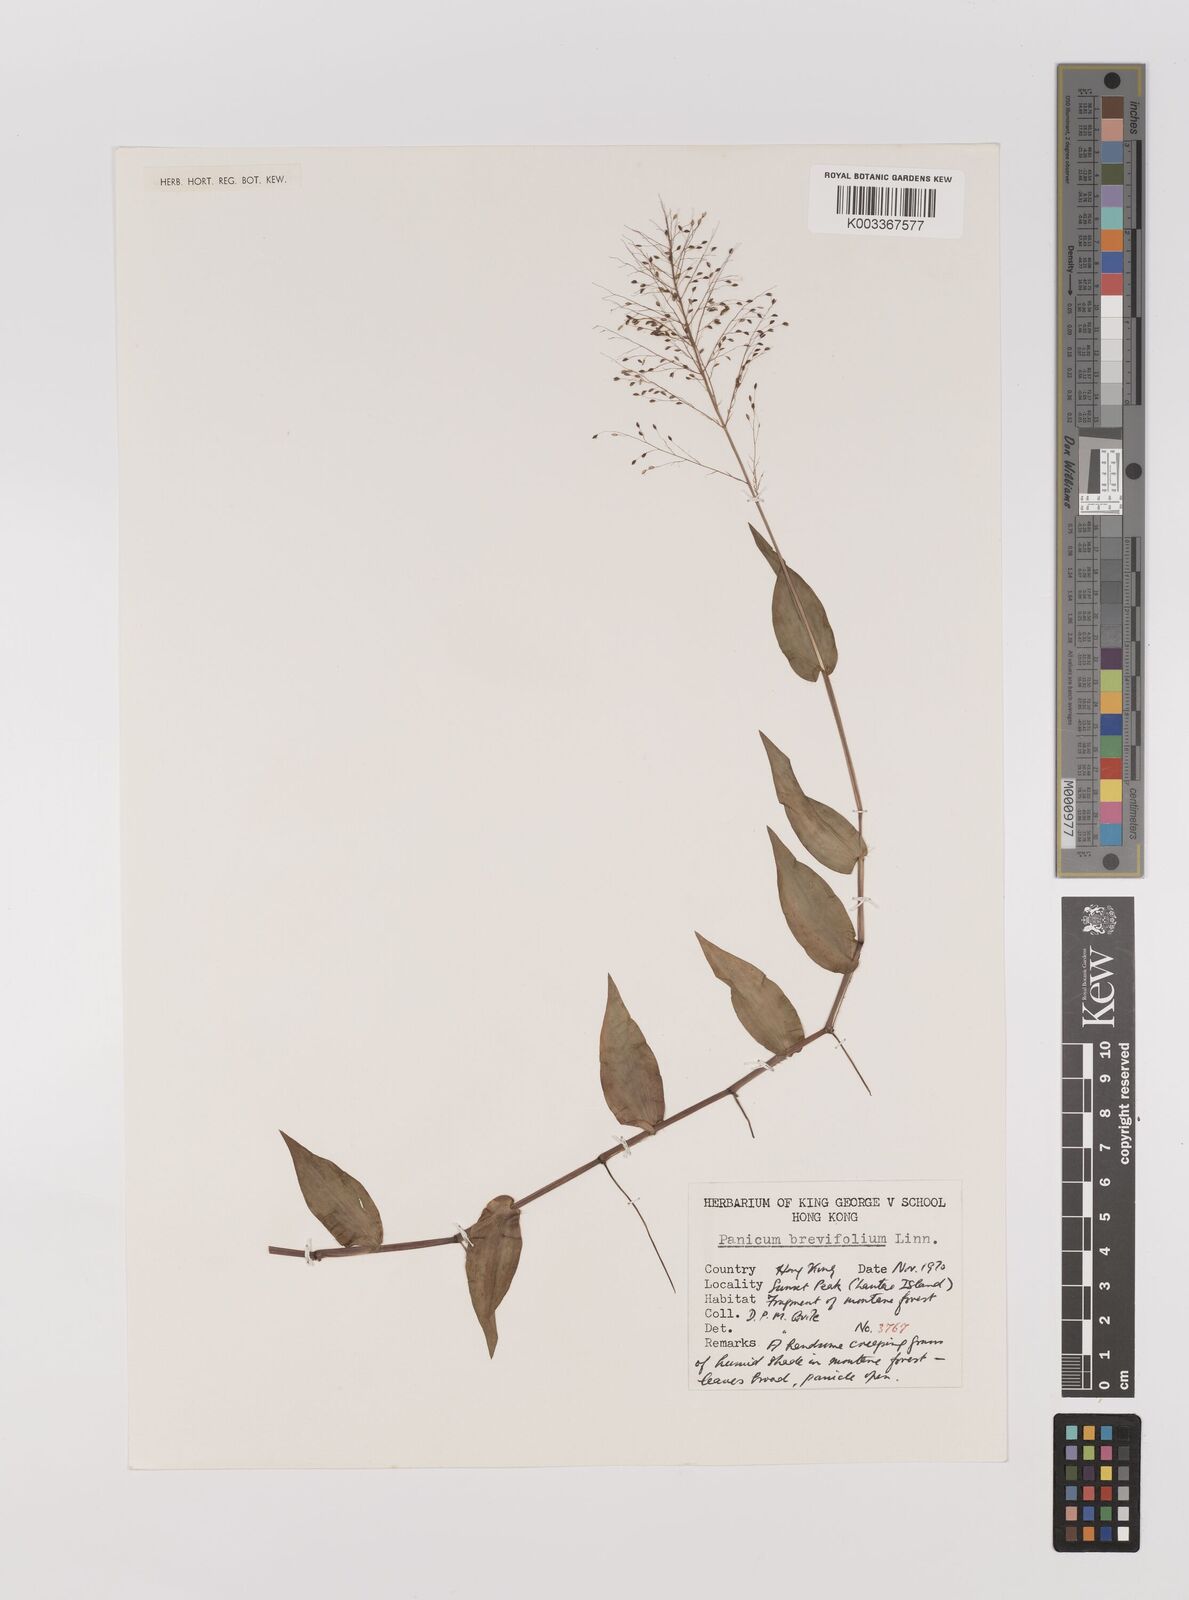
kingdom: Plantae
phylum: Tracheophyta
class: Liliopsida
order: Poales
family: Poaceae
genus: Panicum
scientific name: Panicum brevifolium
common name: Shortleaf panic grass
